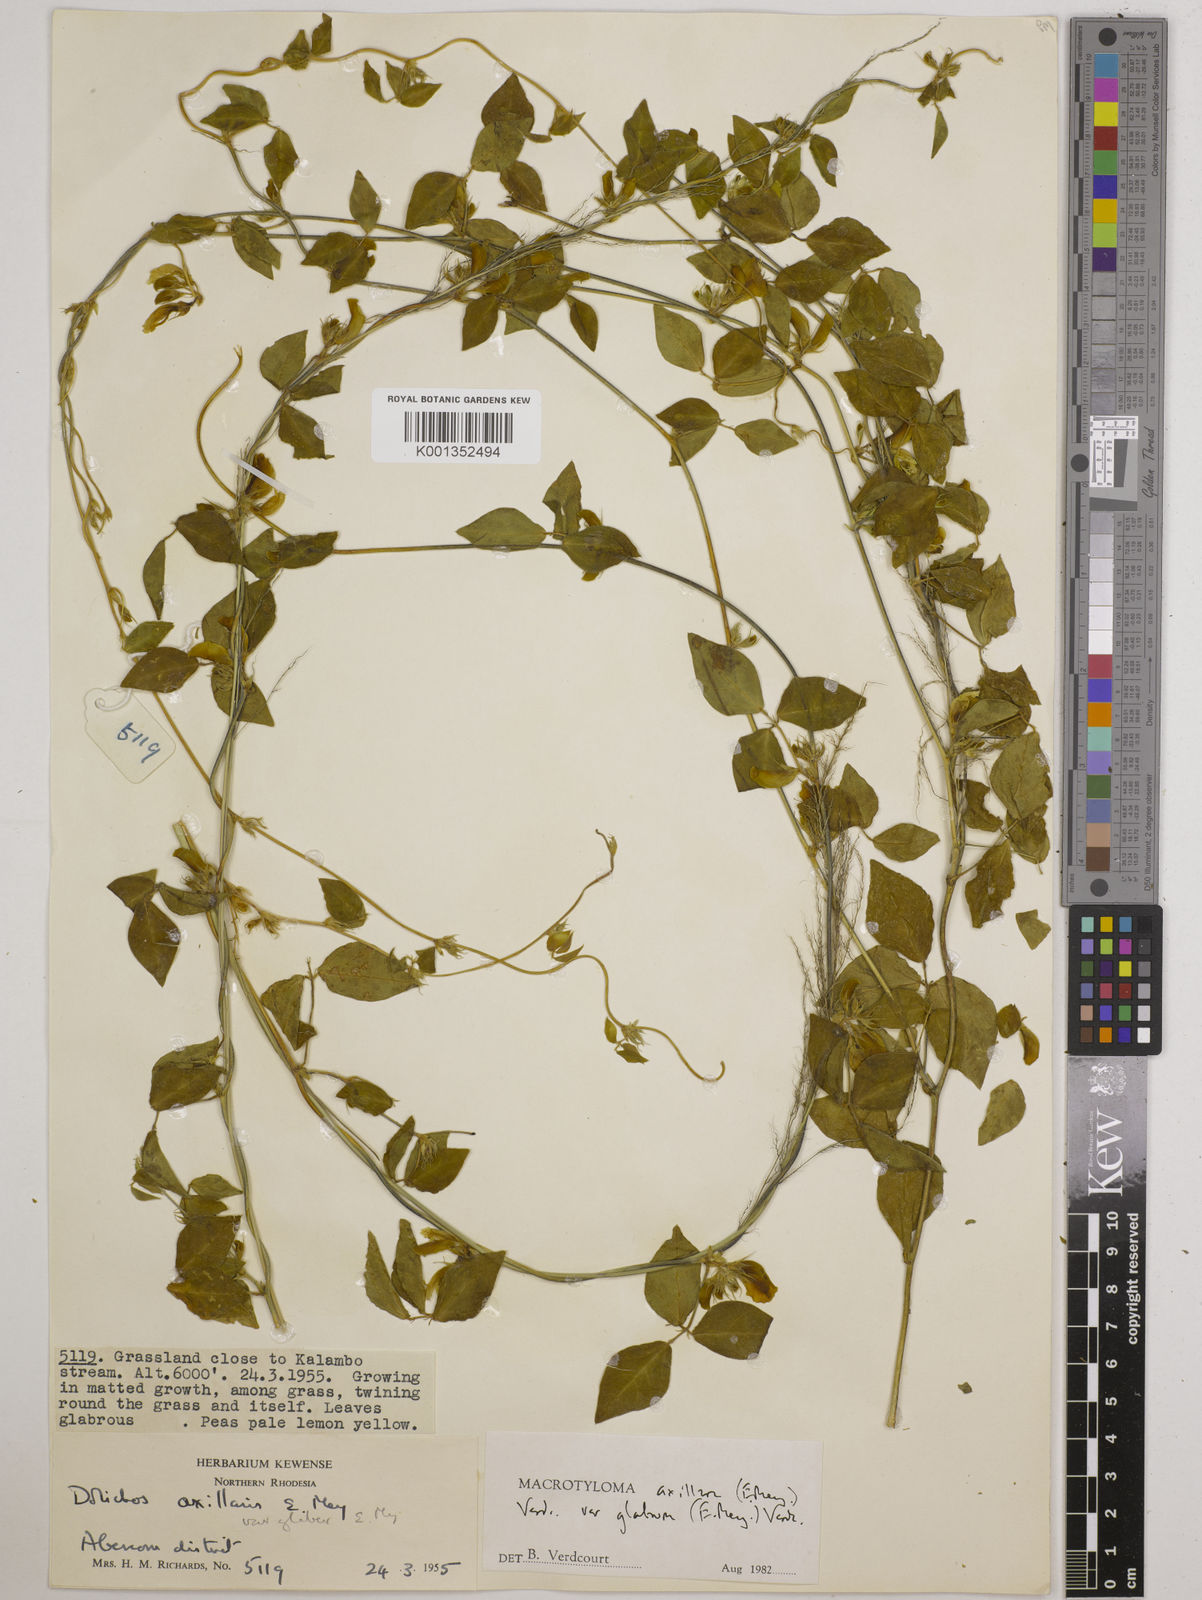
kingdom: Plantae
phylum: Tracheophyta
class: Magnoliopsida
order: Fabales
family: Fabaceae
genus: Macrotyloma
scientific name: Macrotyloma
